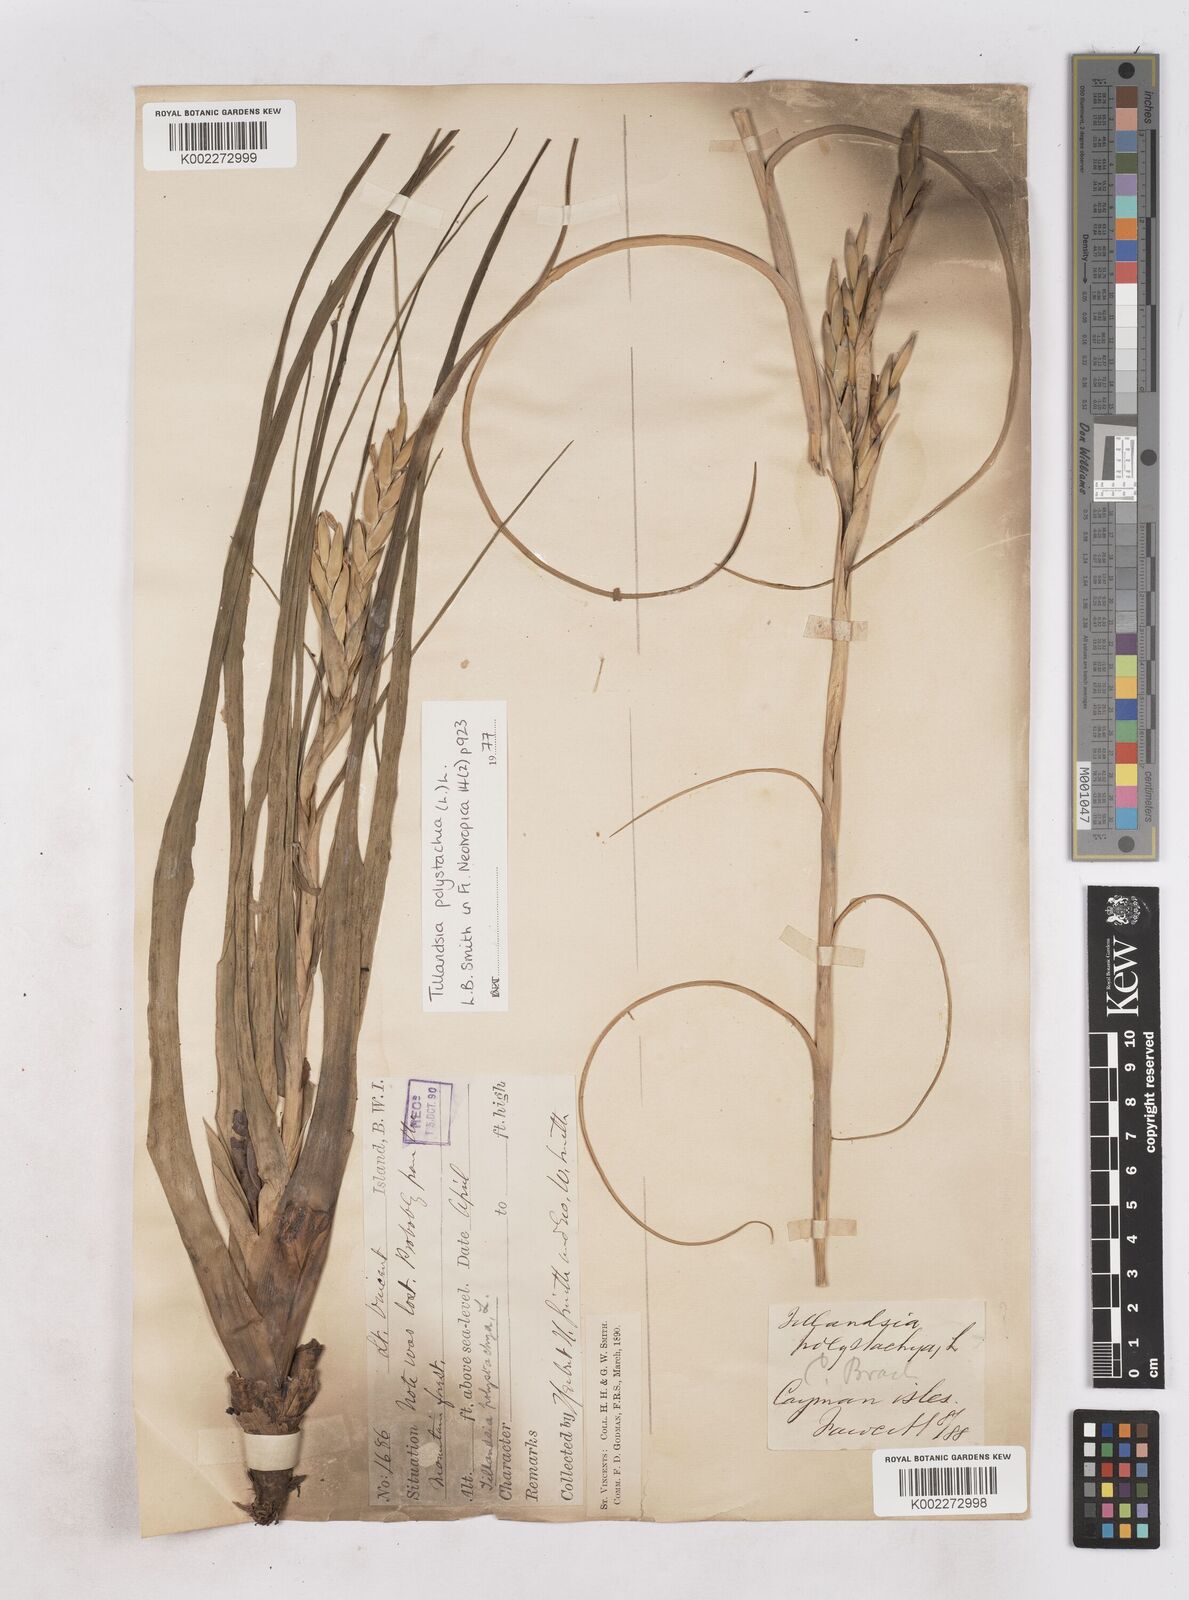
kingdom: Plantae
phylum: Tracheophyta
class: Liliopsida
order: Poales
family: Bromeliaceae
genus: Tillandsia
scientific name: Tillandsia polystachia
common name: Airplant
